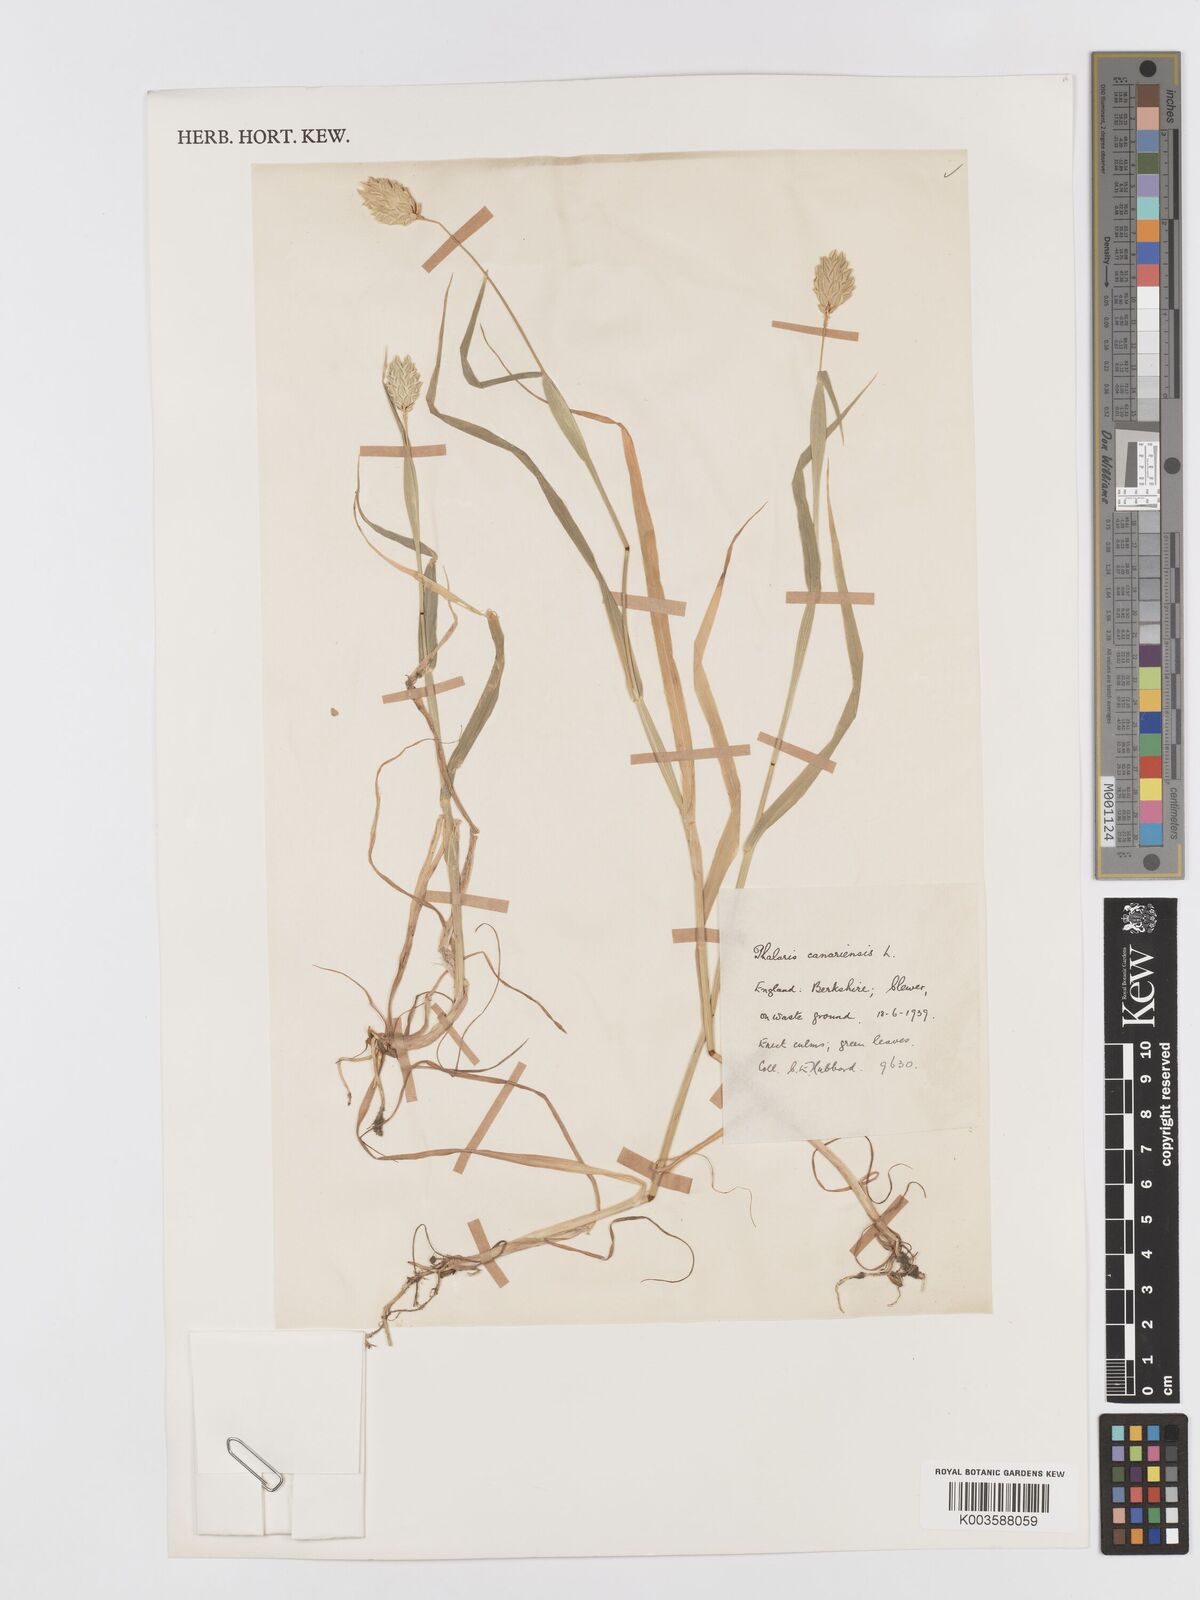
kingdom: Plantae
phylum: Tracheophyta
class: Liliopsida
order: Poales
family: Poaceae
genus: Phalaris
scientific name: Phalaris canariensis
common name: Annual canarygrass
